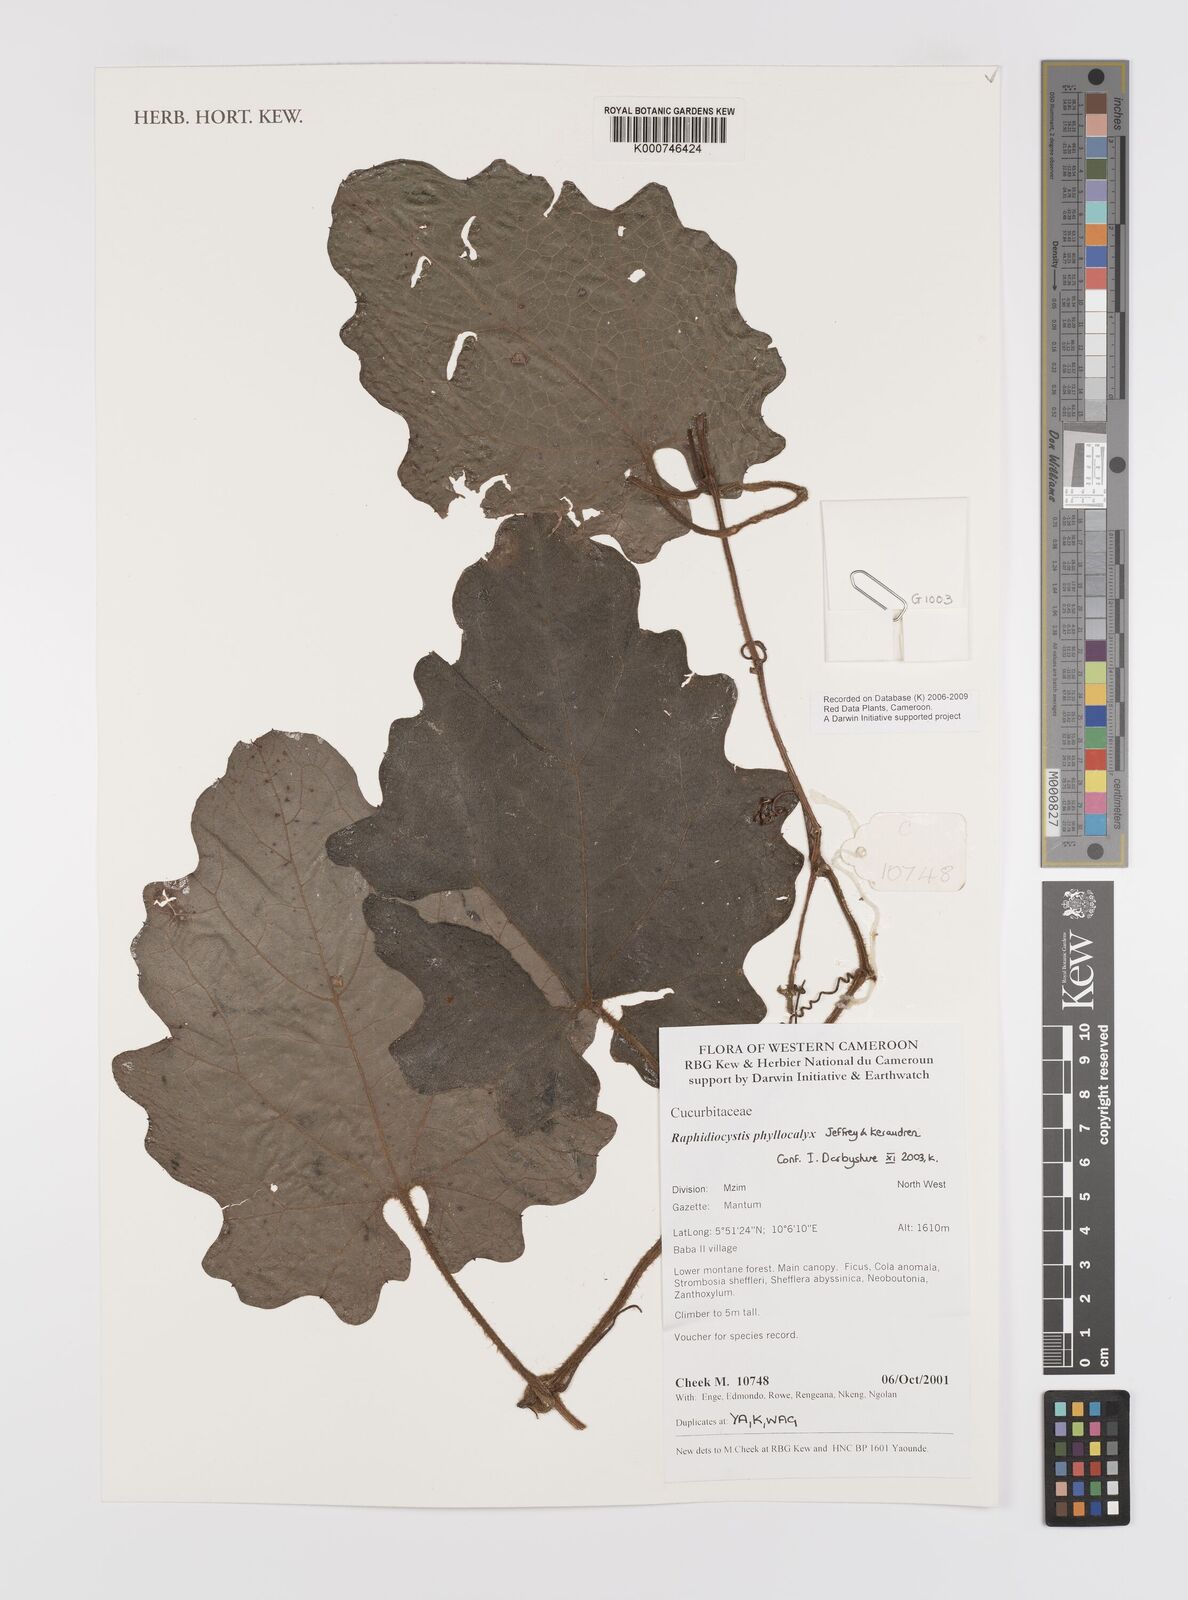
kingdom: Plantae
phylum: Tracheophyta
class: Magnoliopsida
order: Cucurbitales
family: Cucurbitaceae
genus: Raphidiocystis
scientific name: Raphidiocystis phyllocalyx
